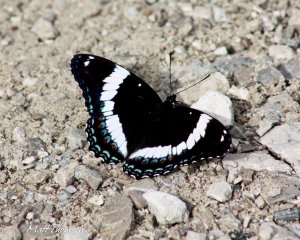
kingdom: Animalia
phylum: Arthropoda
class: Insecta
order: Lepidoptera
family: Nymphalidae
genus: Nymphalis
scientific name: Nymphalis antiopa
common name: Mourning Cloak
